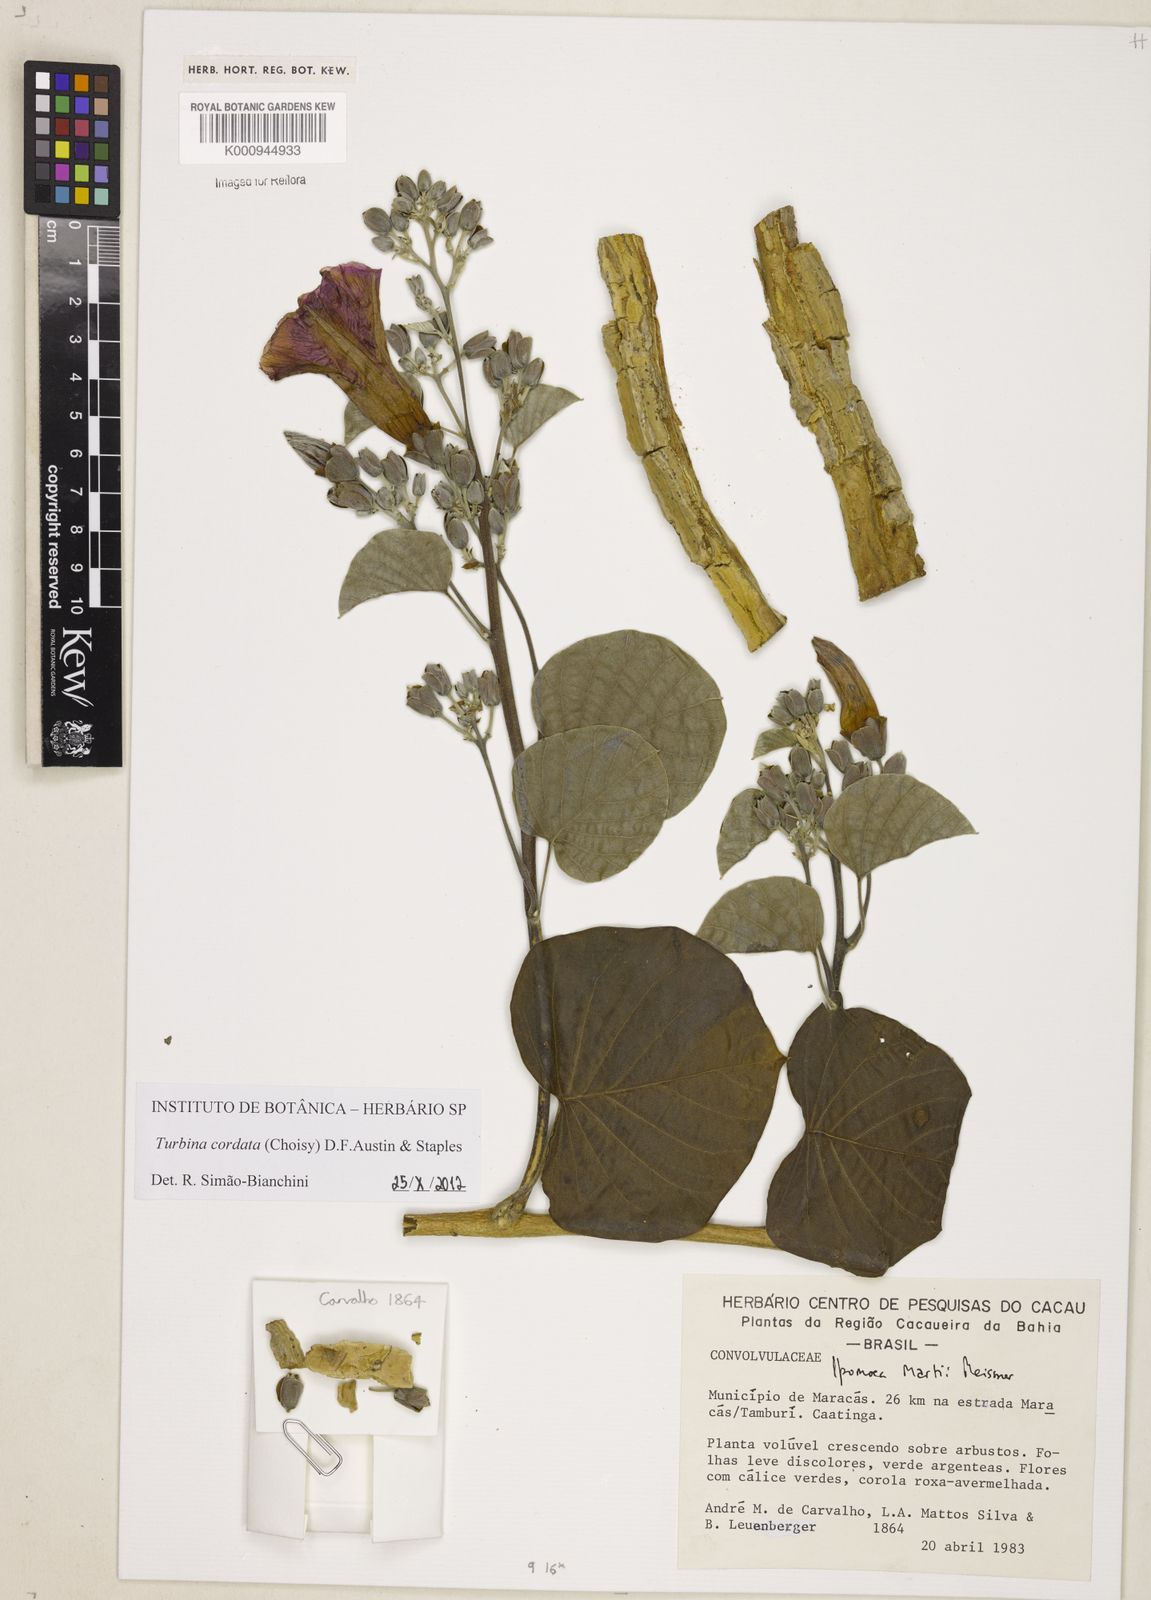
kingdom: Plantae
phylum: Tracheophyta
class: Magnoliopsida
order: Solanales
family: Convolvulaceae
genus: Ipomoea
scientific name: Ipomoea sericosepala
